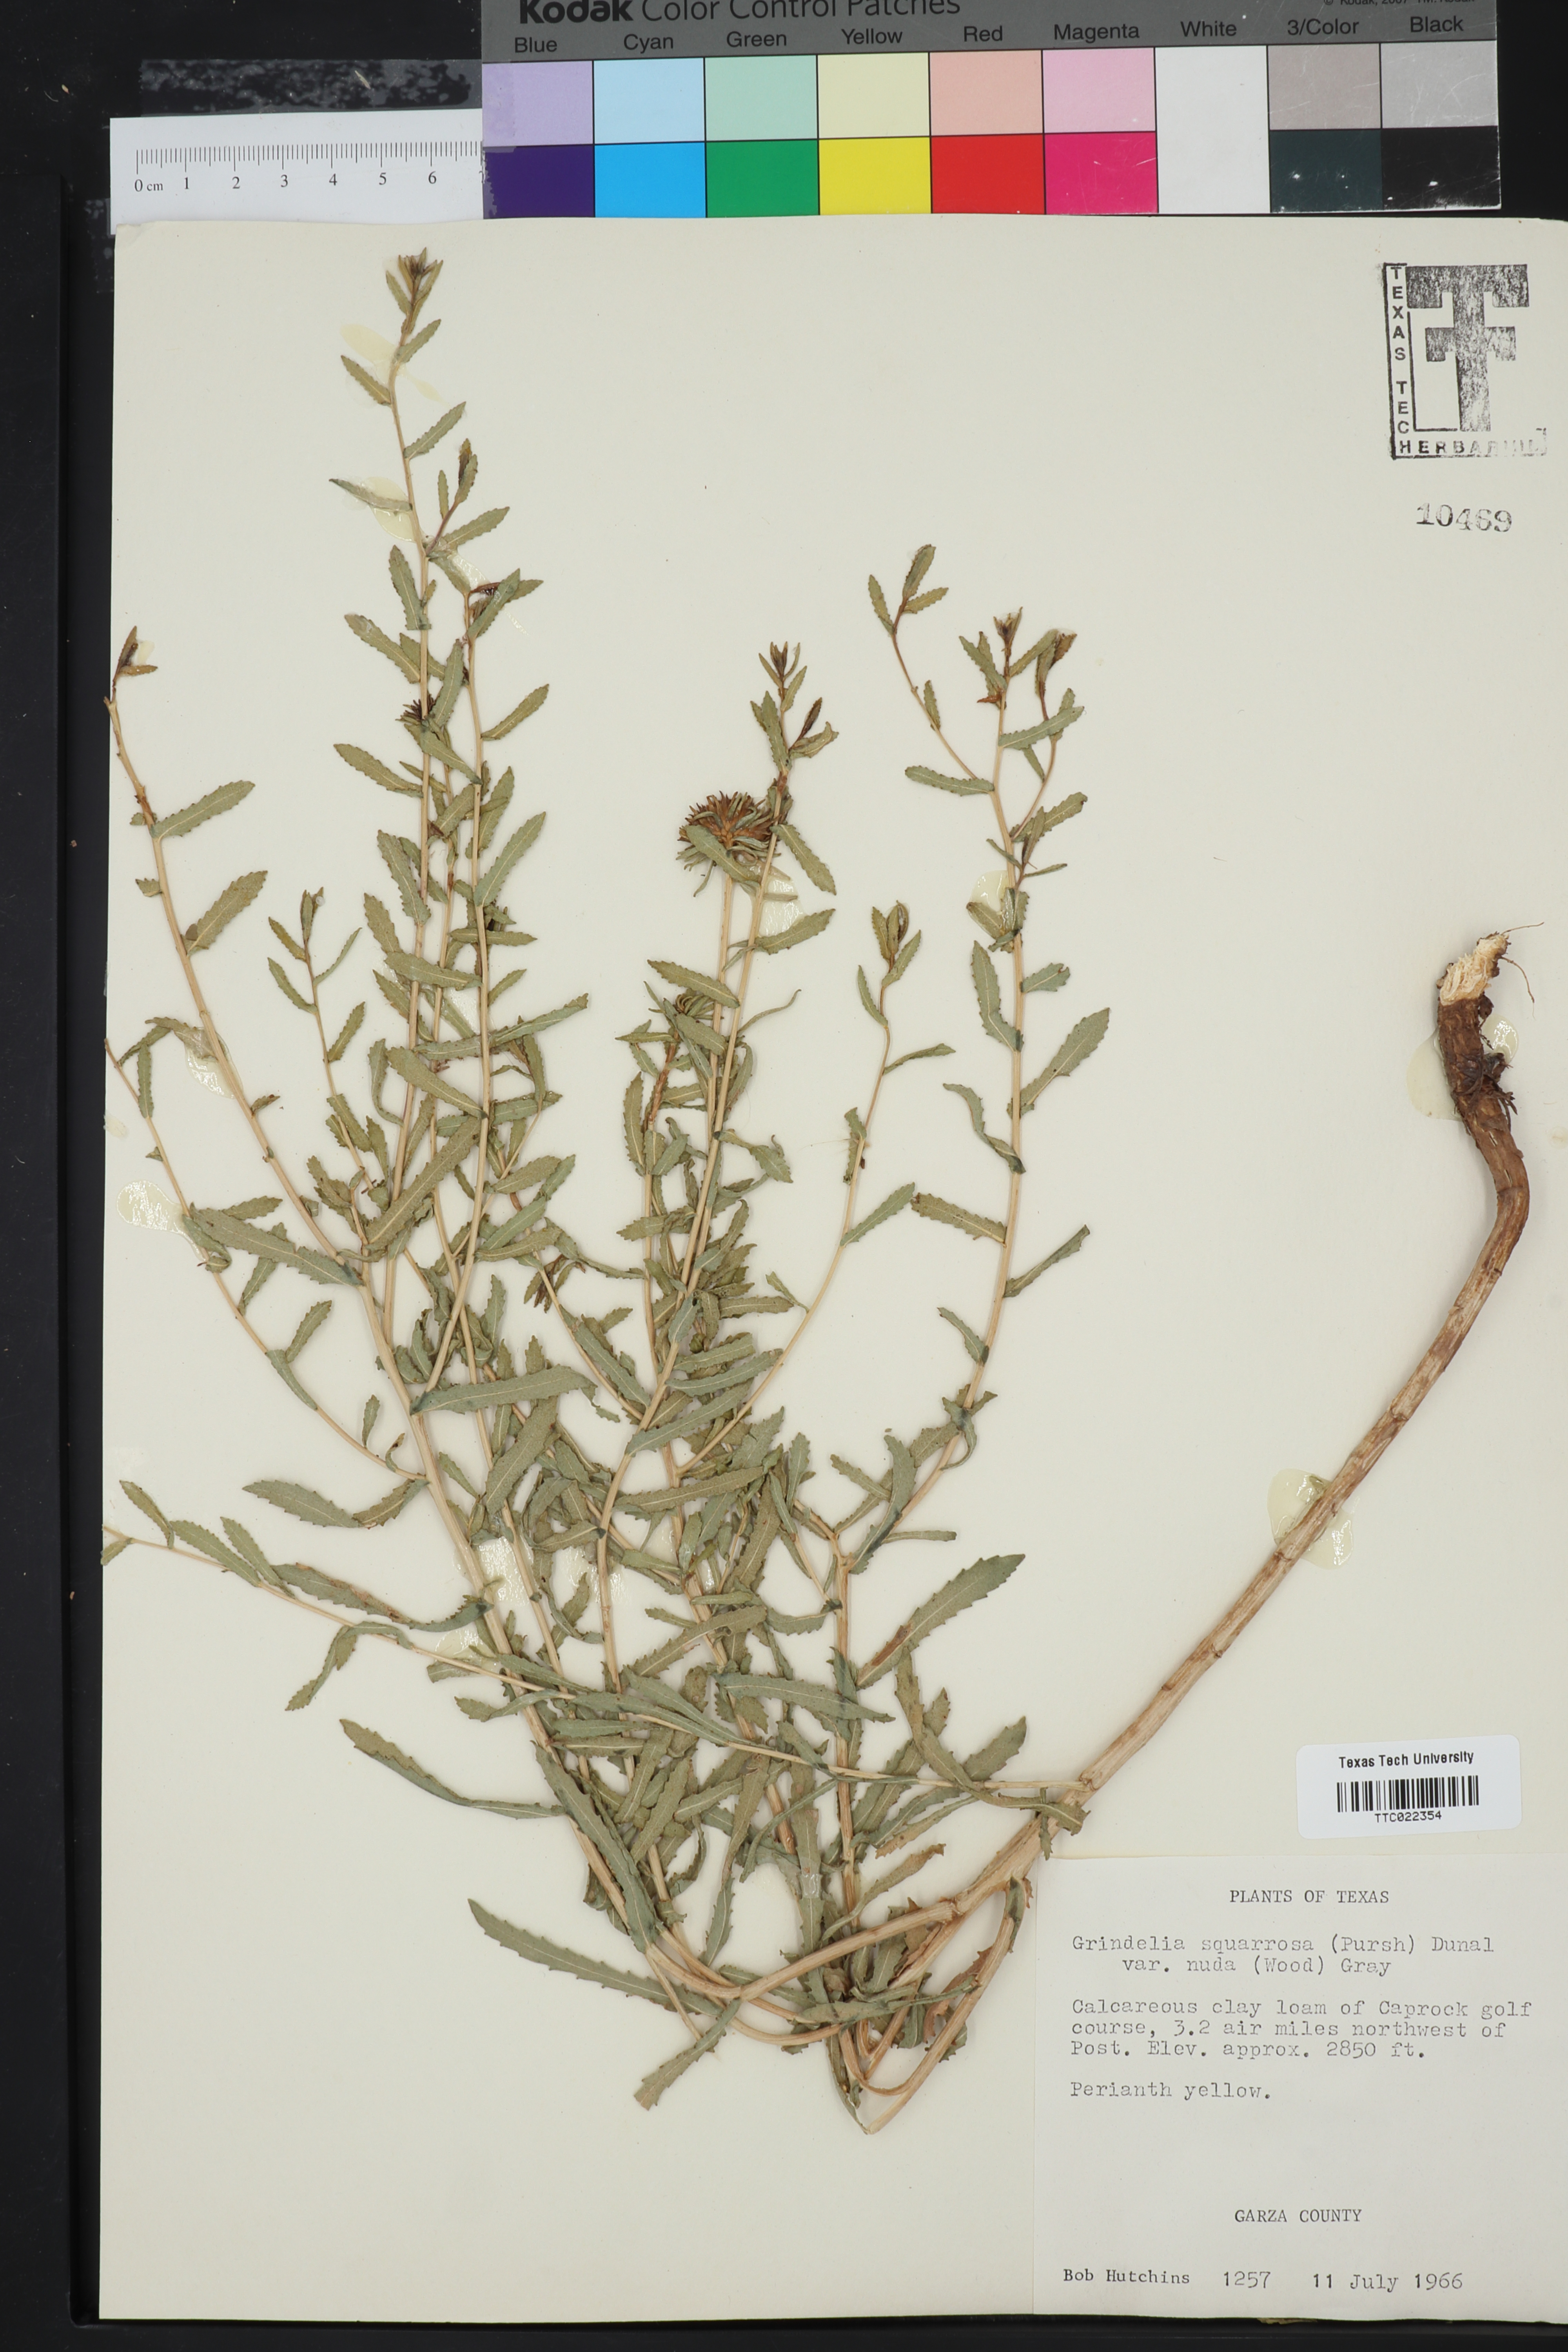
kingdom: Plantae
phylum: Tracheophyta
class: Magnoliopsida
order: Asterales
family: Asteraceae
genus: Grindelia
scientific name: Grindelia nuda
